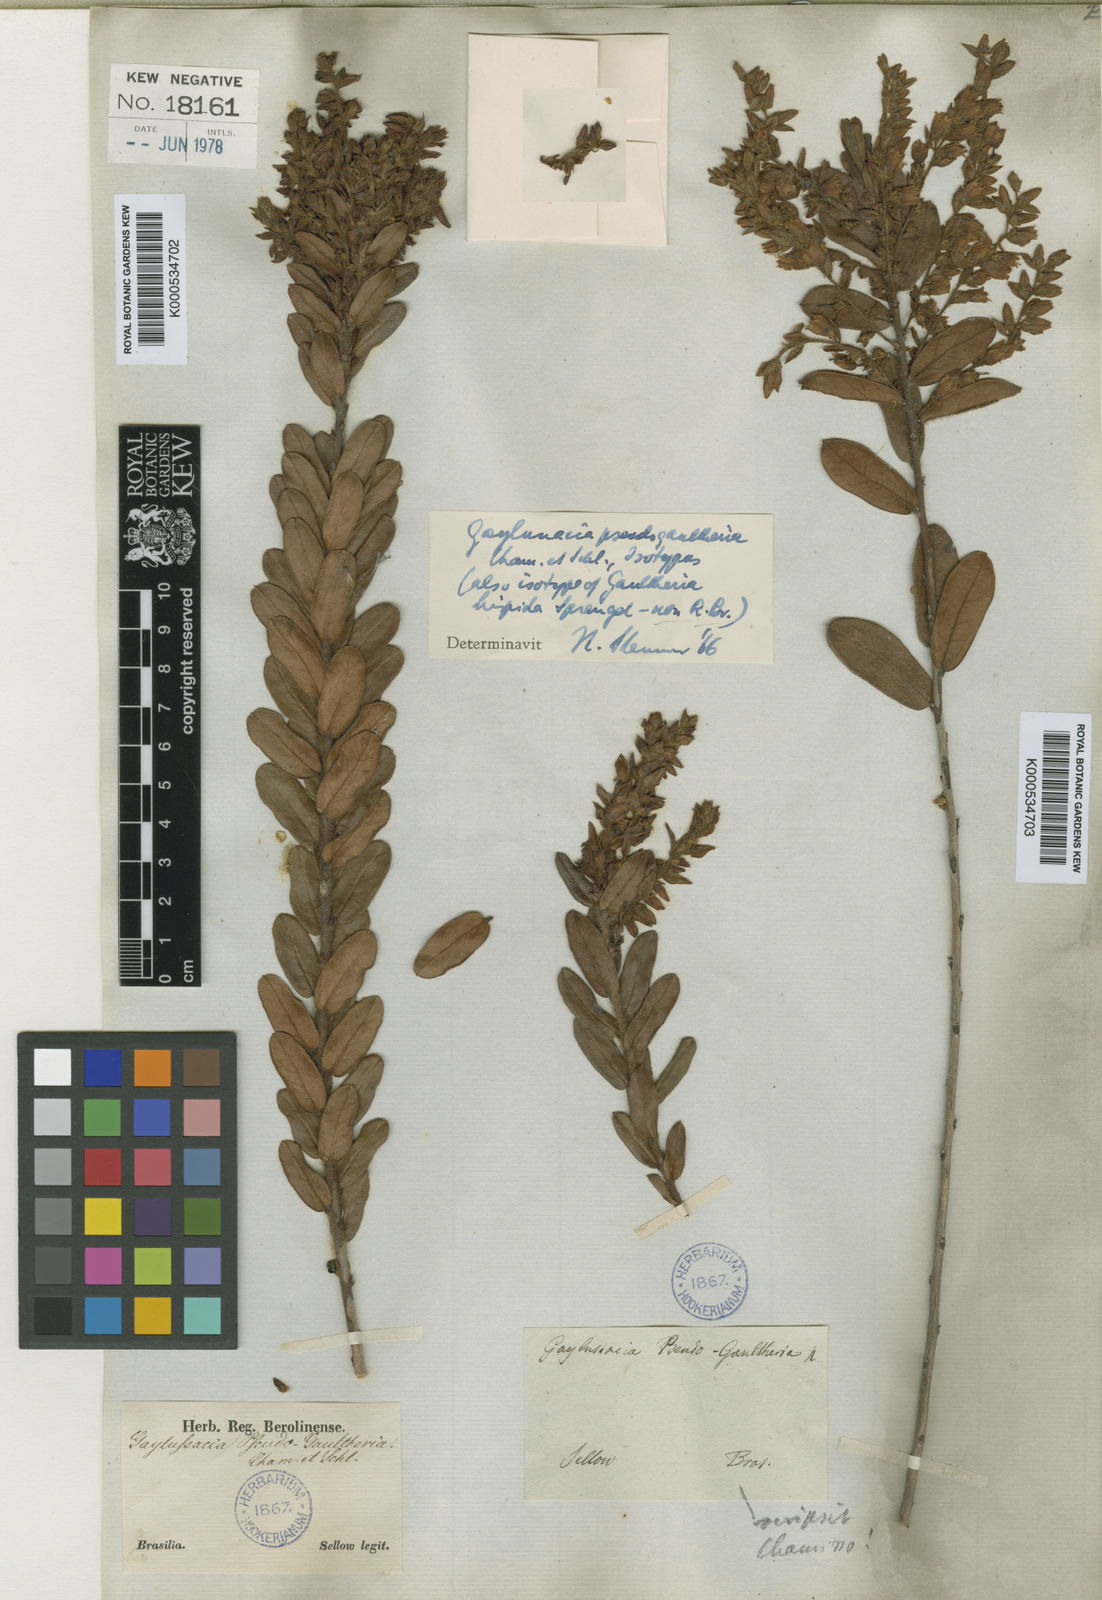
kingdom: Plantae
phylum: Tracheophyta
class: Magnoliopsida
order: Ericales
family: Ericaceae
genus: Gaylussacia
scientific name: Gaylussacia pseudogaultheria
